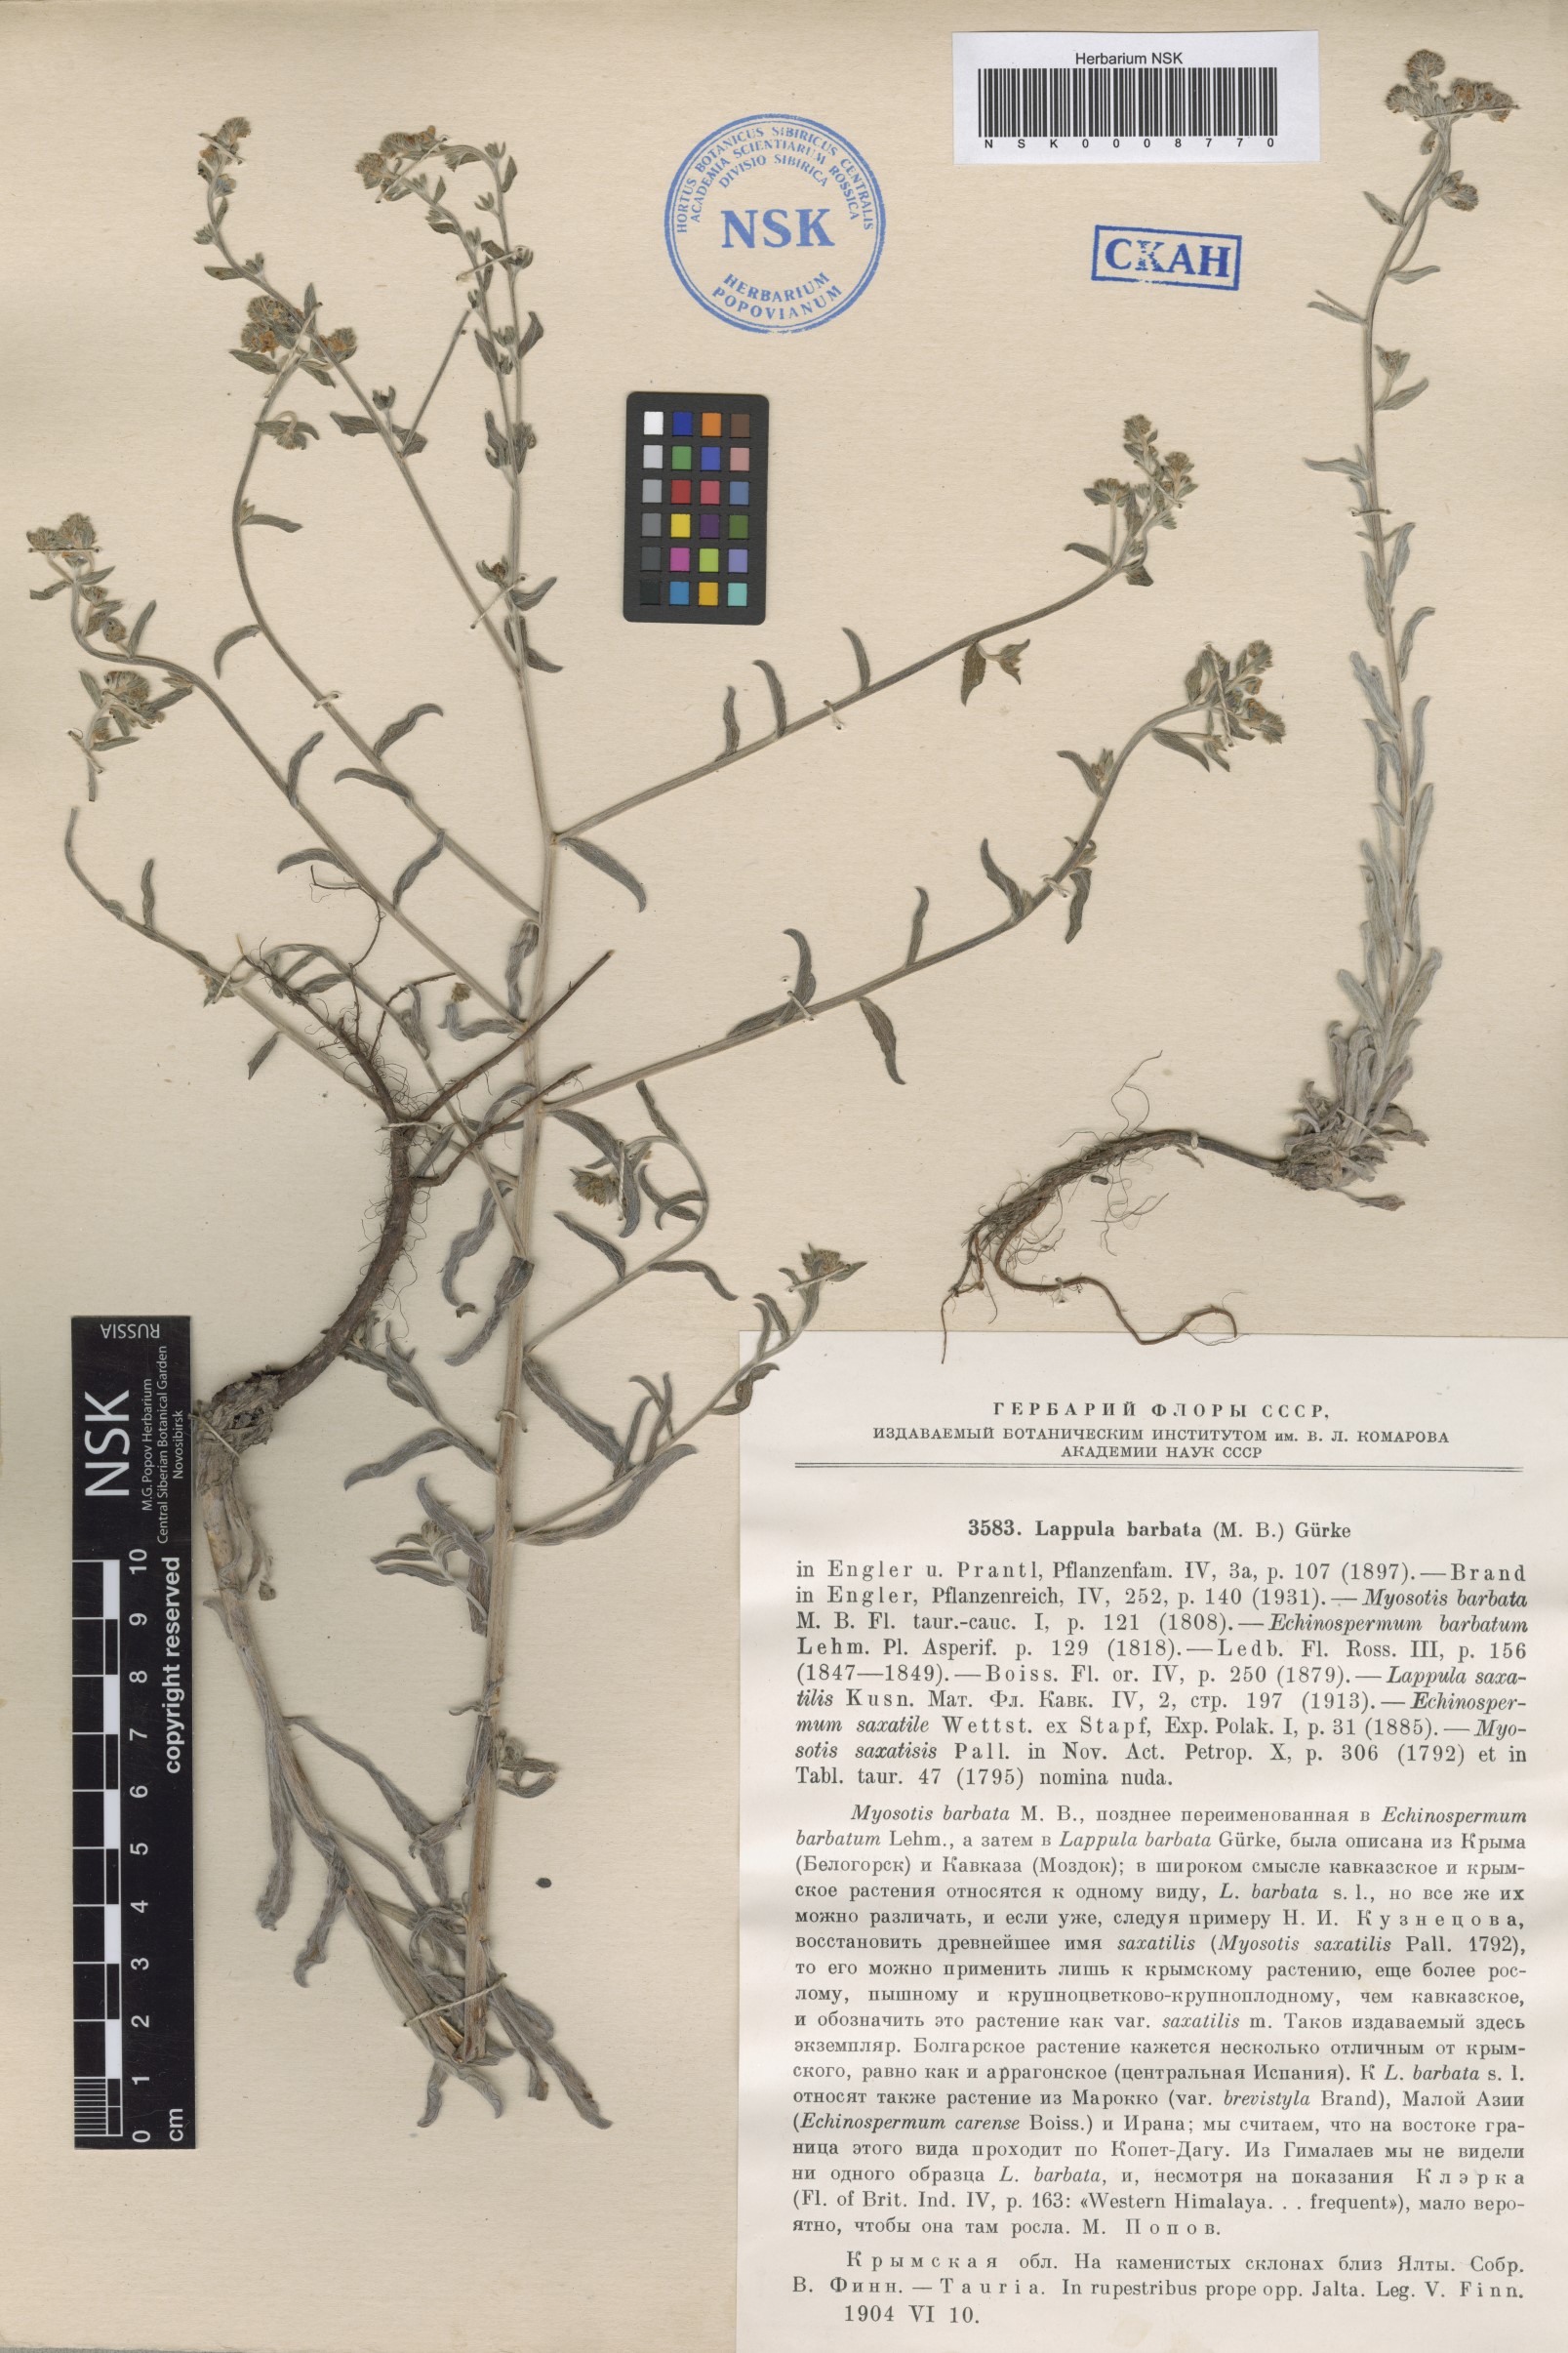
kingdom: Plantae
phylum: Tracheophyta
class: Magnoliopsida
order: Boraginales
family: Boraginaceae
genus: Lappula
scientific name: Lappula barbata
